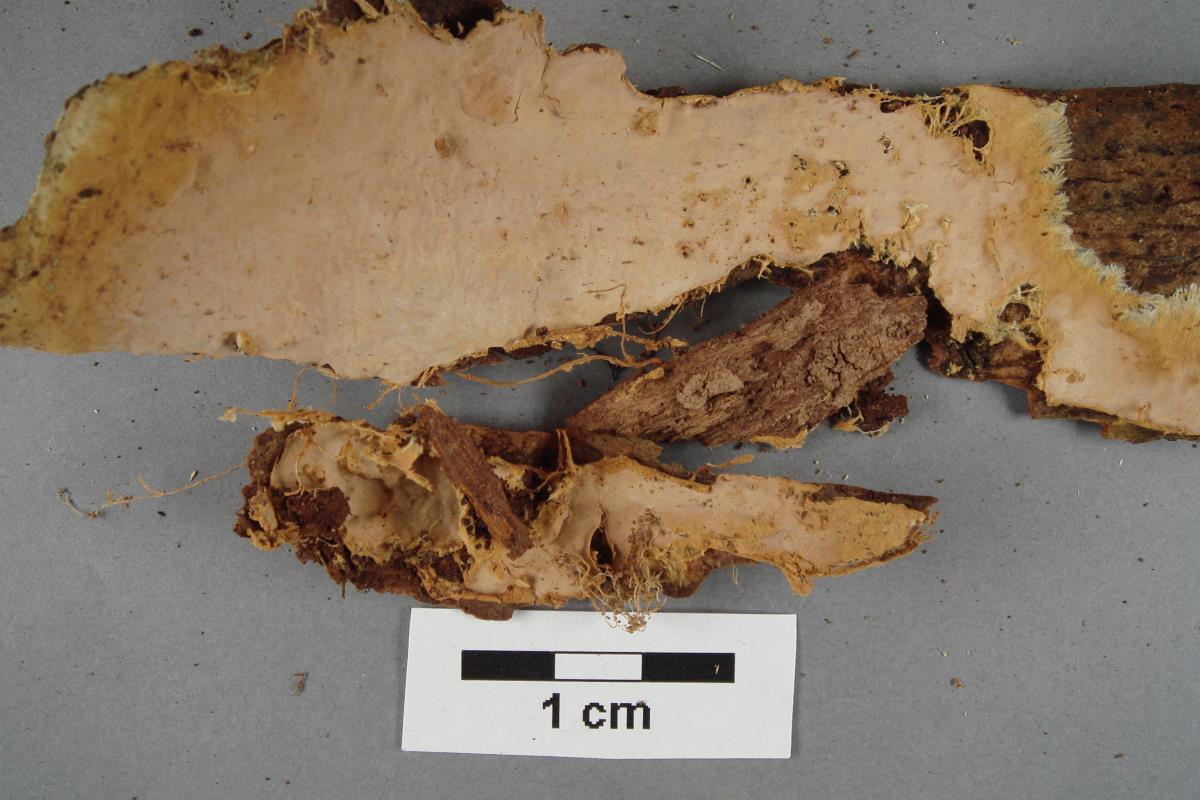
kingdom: Fungi
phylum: Basidiomycota
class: Agaricomycetes
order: Polyporales
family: Phanerochaetaceae
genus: Rhizochaete
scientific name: Rhizochaete radicata
